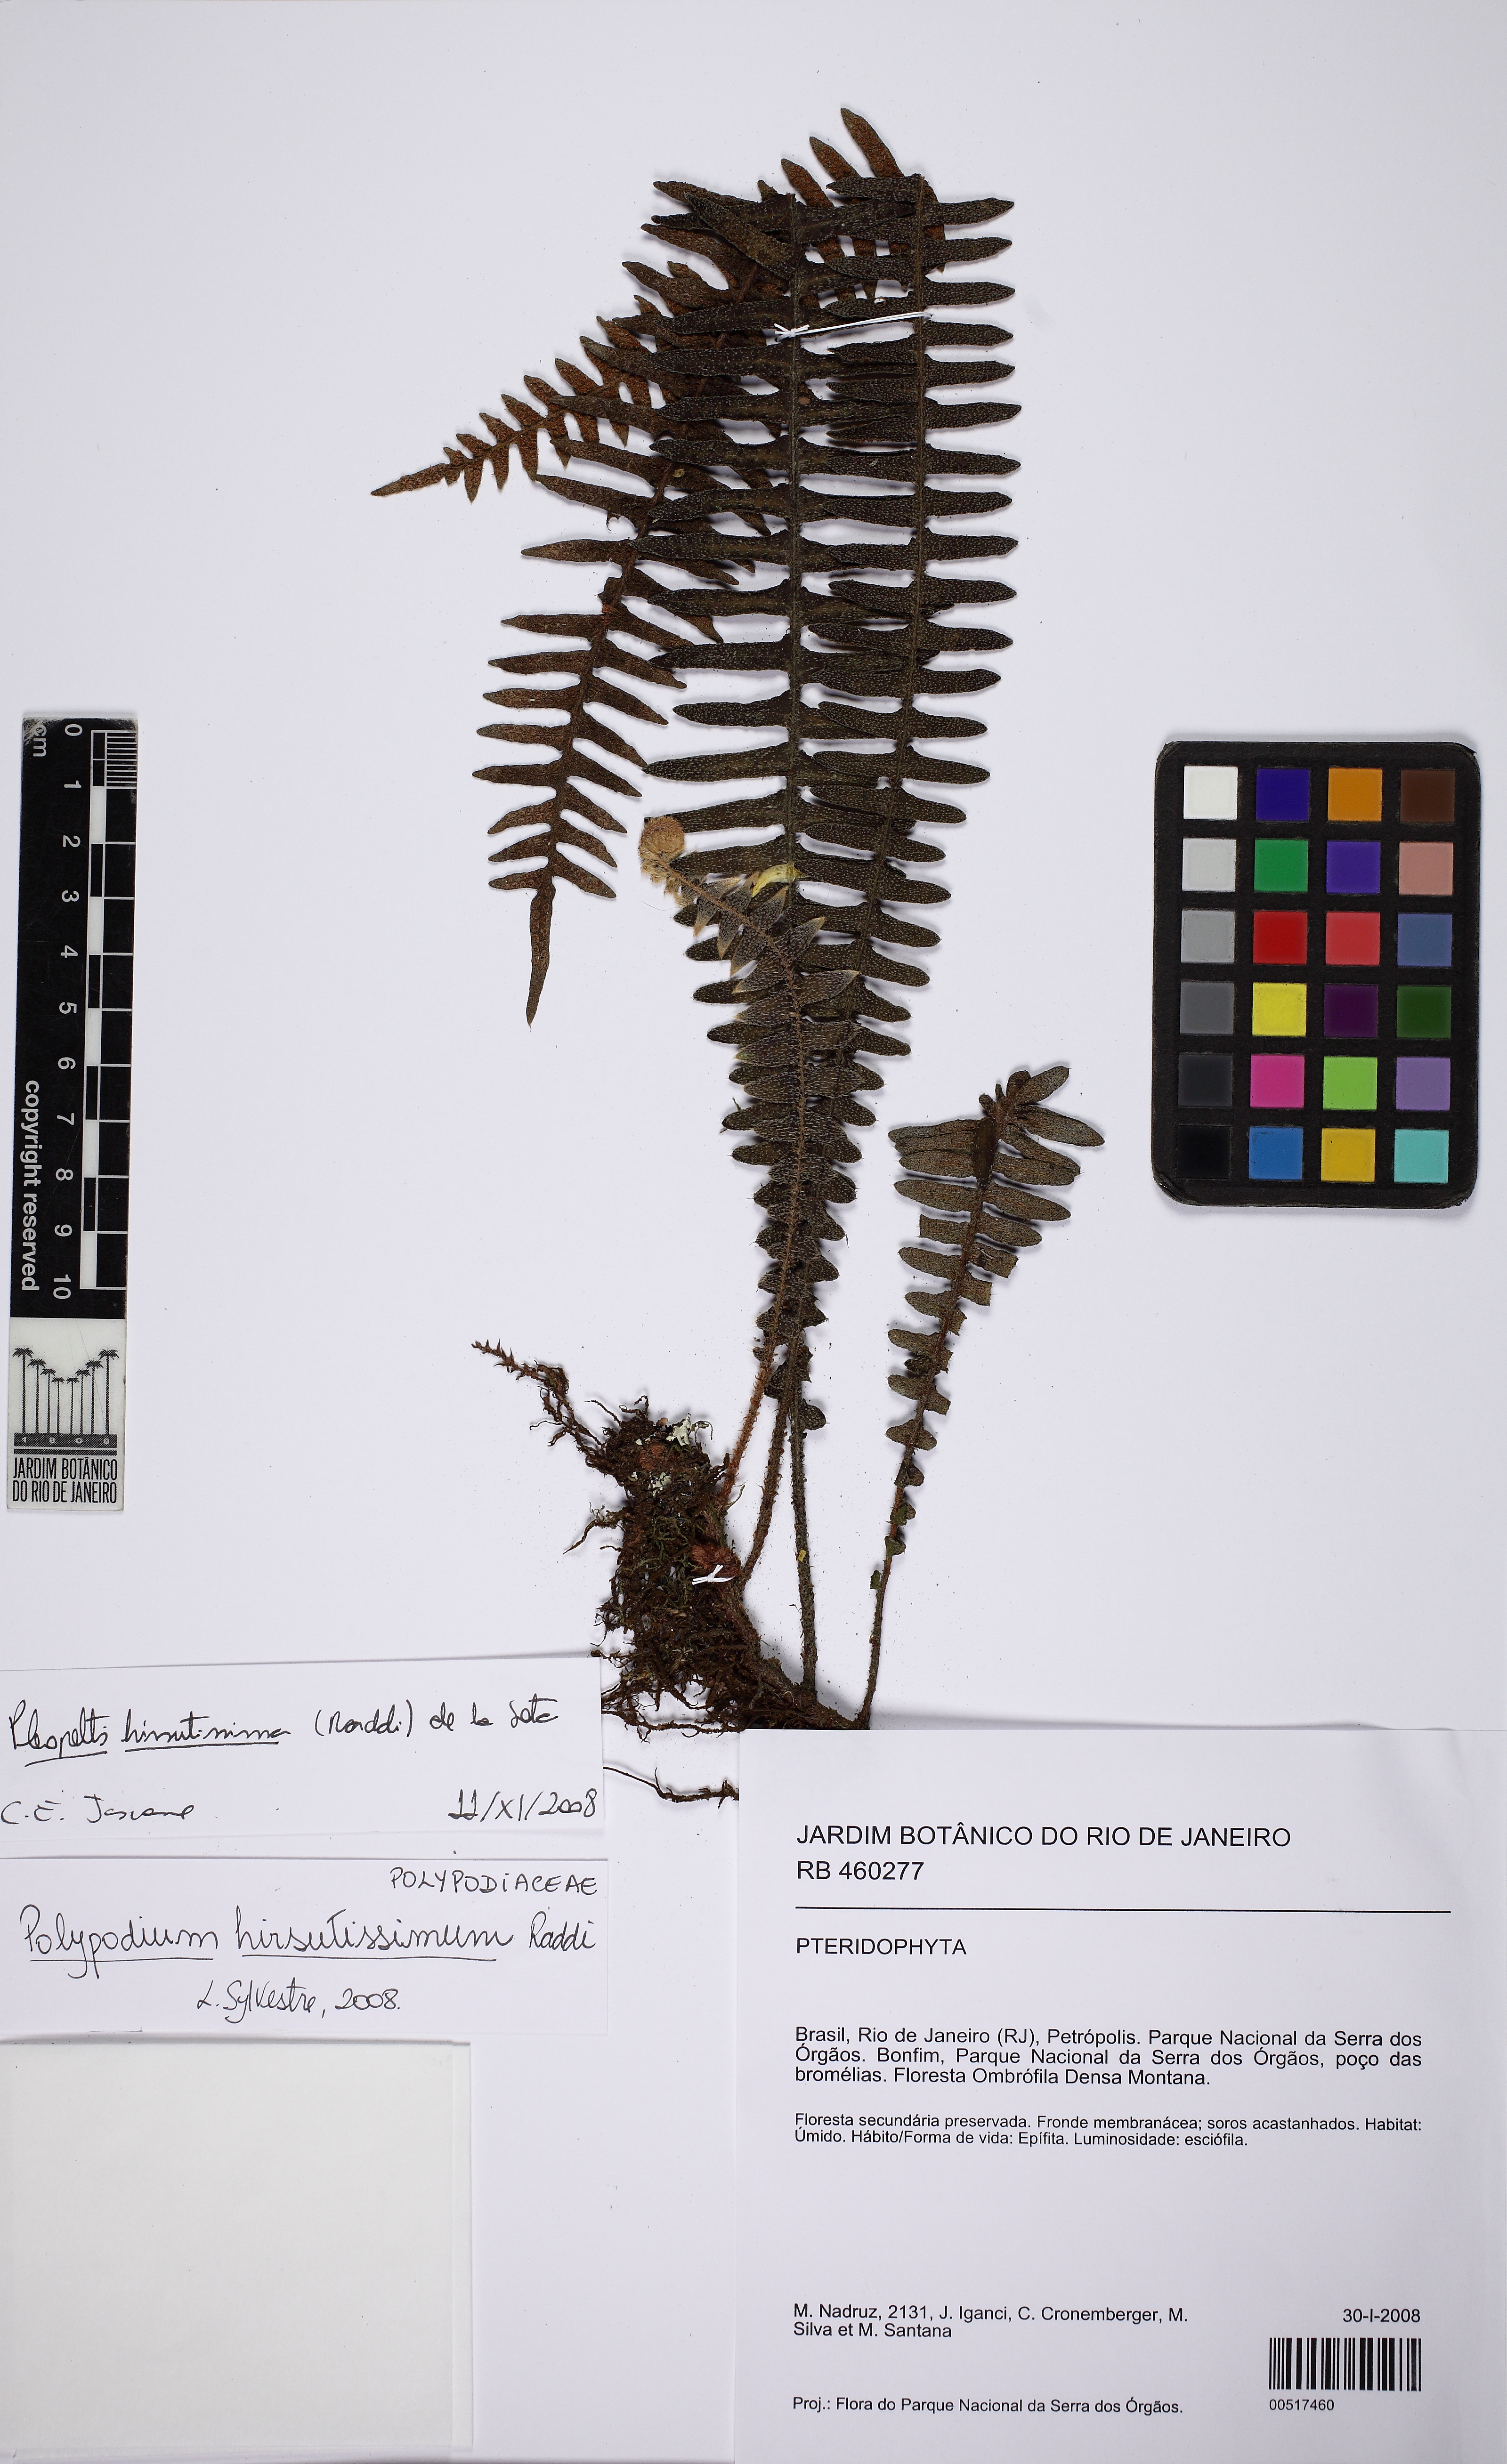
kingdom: Plantae
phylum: Tracheophyta
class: Polypodiopsida
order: Polypodiales
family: Polypodiaceae
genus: Pleopeltis
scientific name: Pleopeltis hirsutissima
